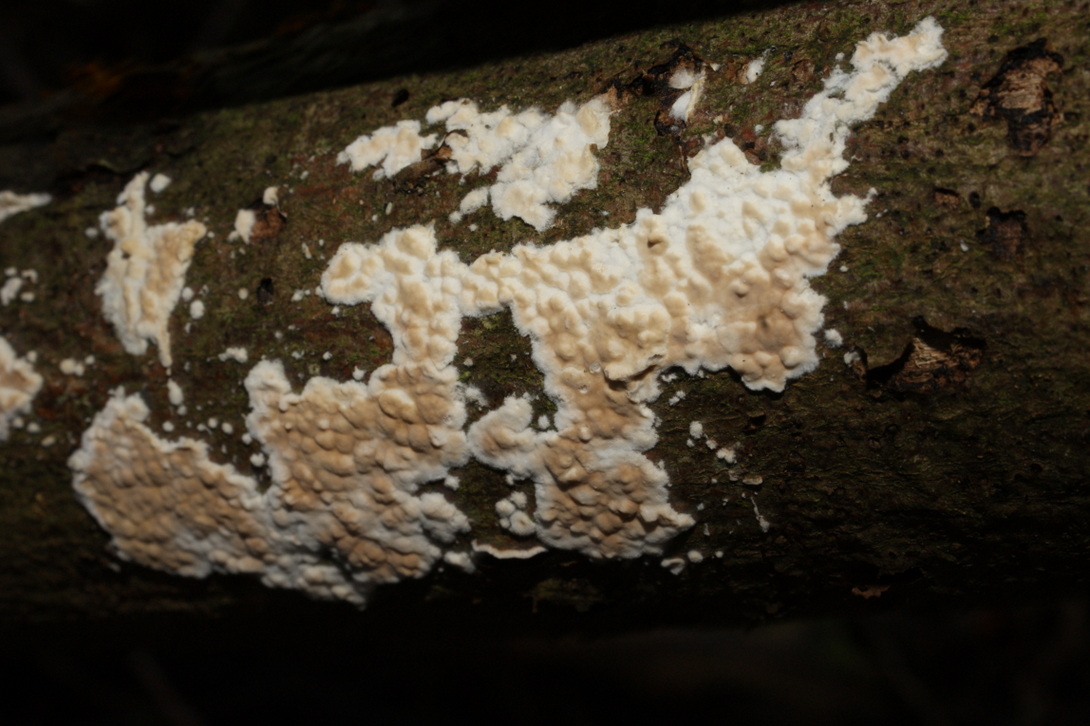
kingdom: Fungi
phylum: Basidiomycota
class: Agaricomycetes
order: Agaricales
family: Physalacriaceae
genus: Cylindrobasidium
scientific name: Cylindrobasidium evolvens
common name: sprækkehinde
